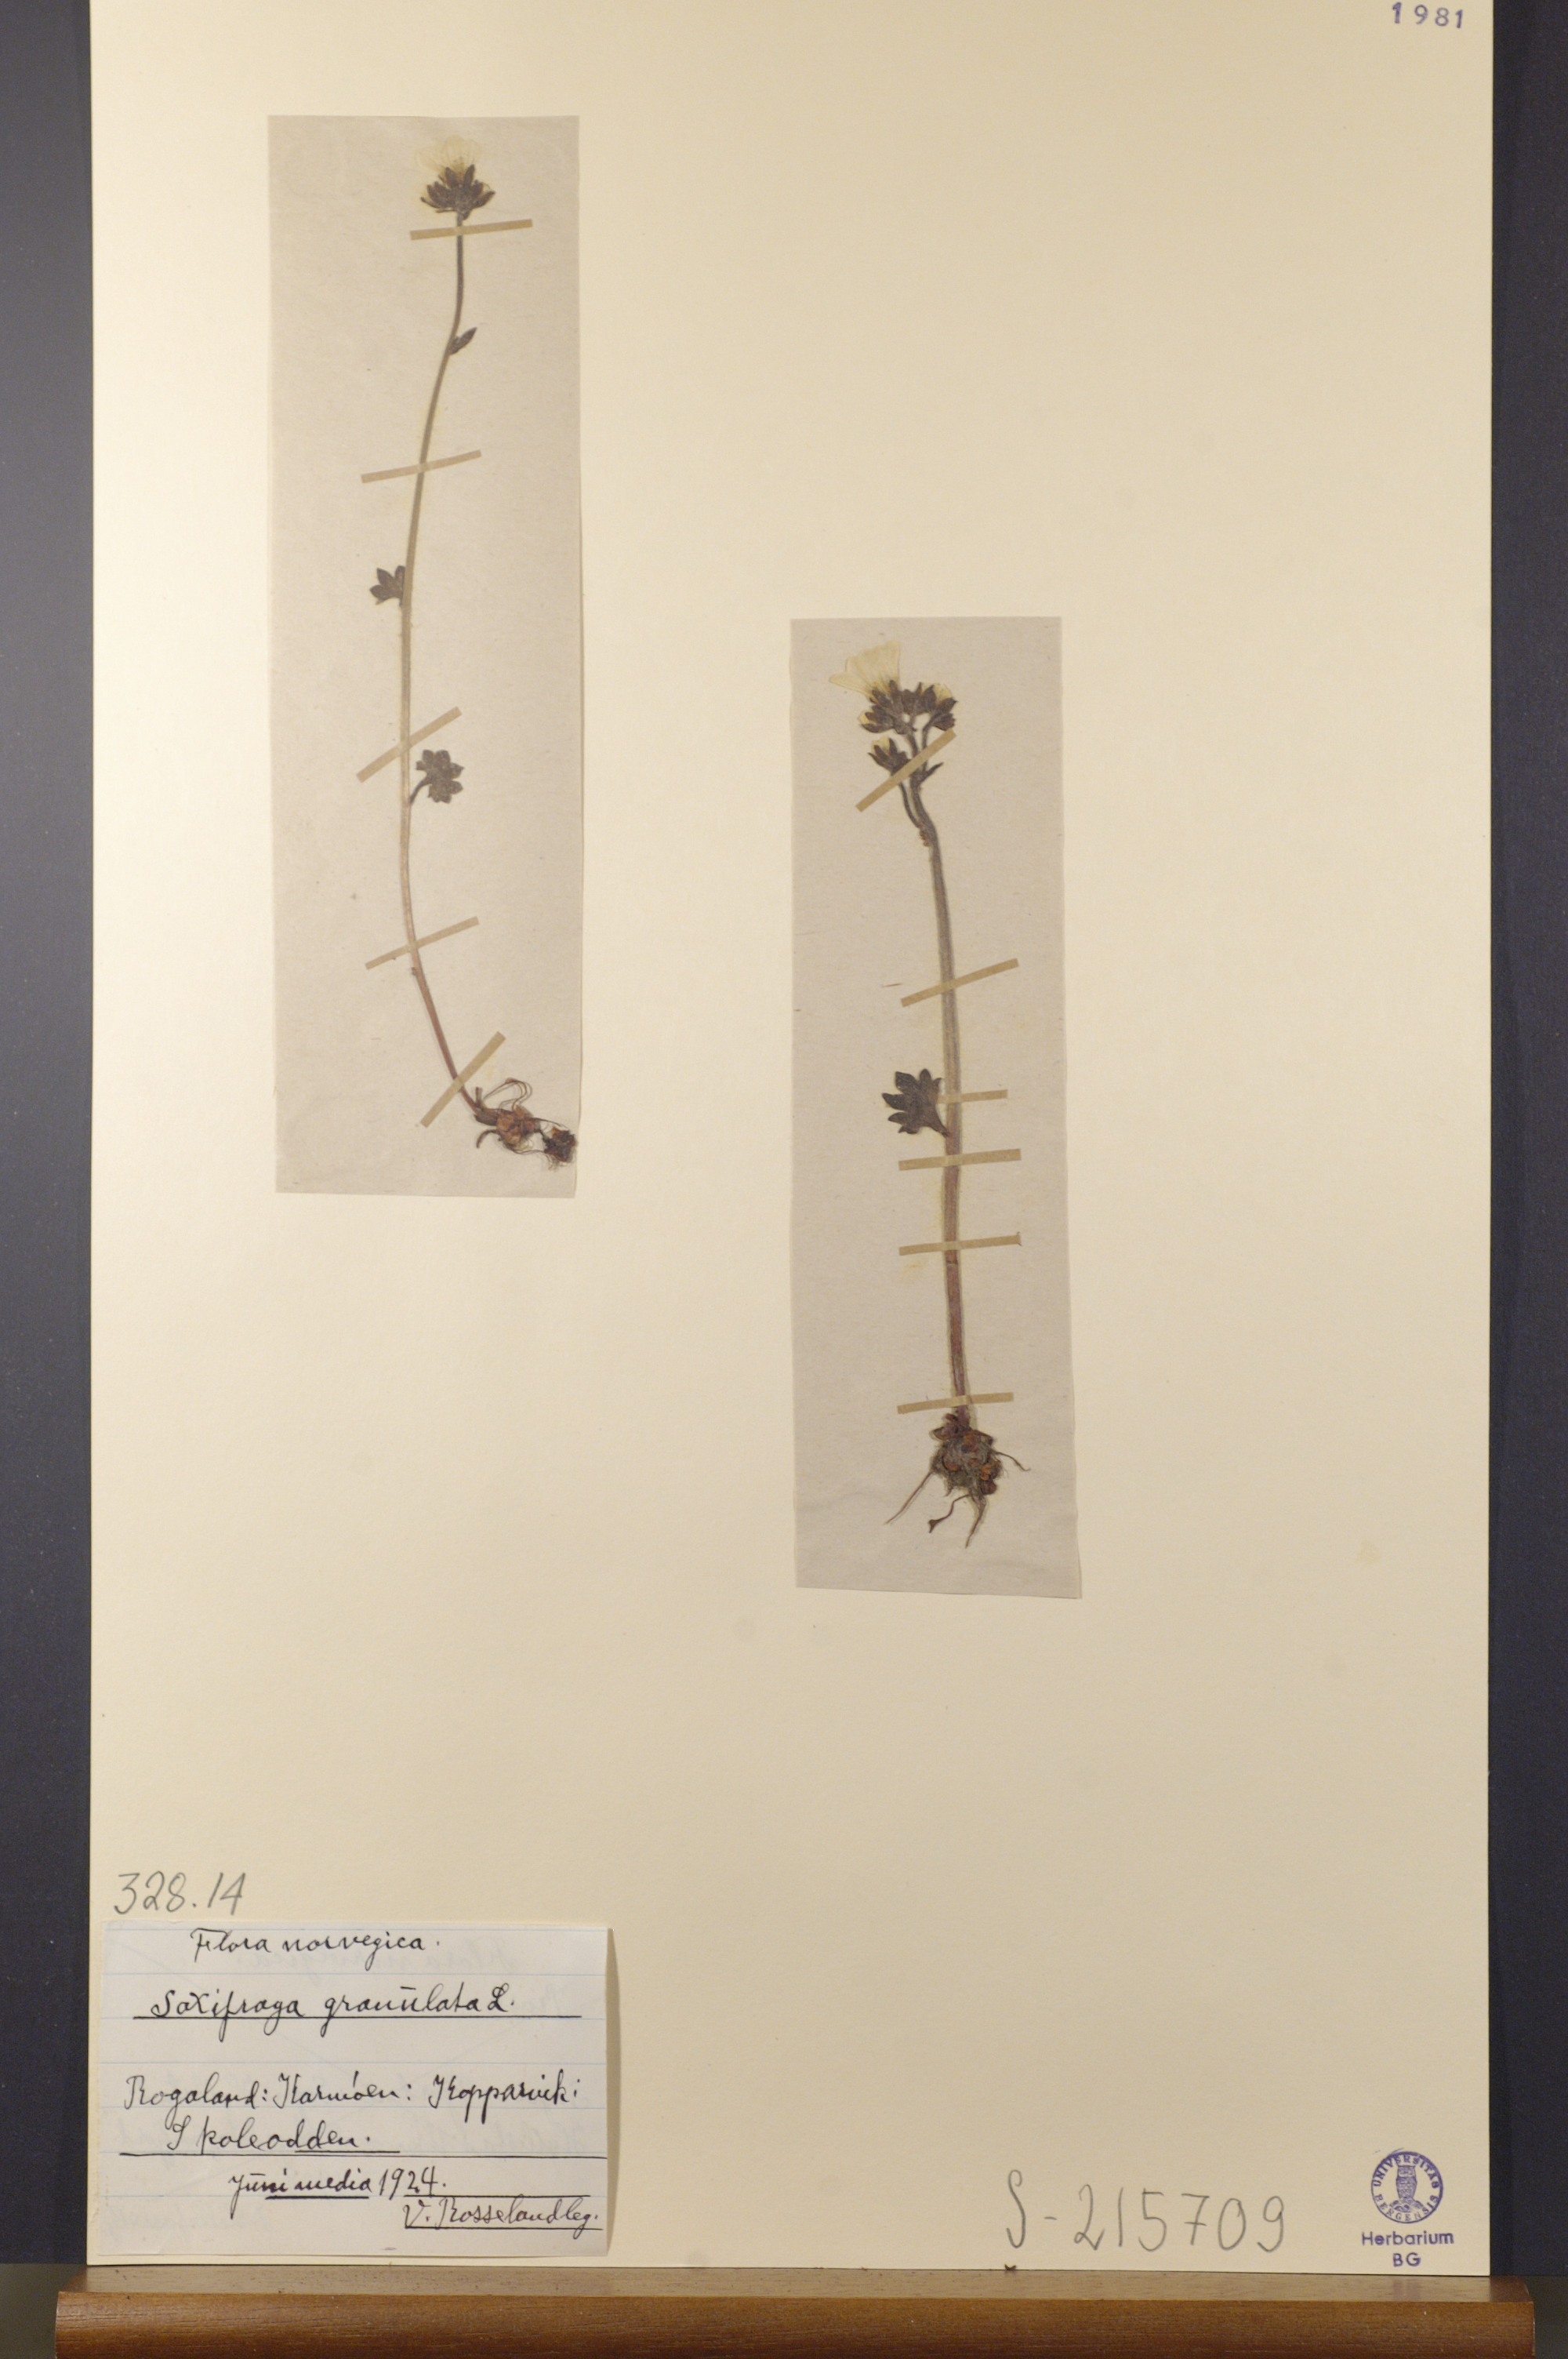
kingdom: Plantae
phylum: Tracheophyta
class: Magnoliopsida
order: Saxifragales
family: Saxifragaceae
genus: Saxifraga
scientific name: Saxifraga granulata
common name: Meadow saxifrage
